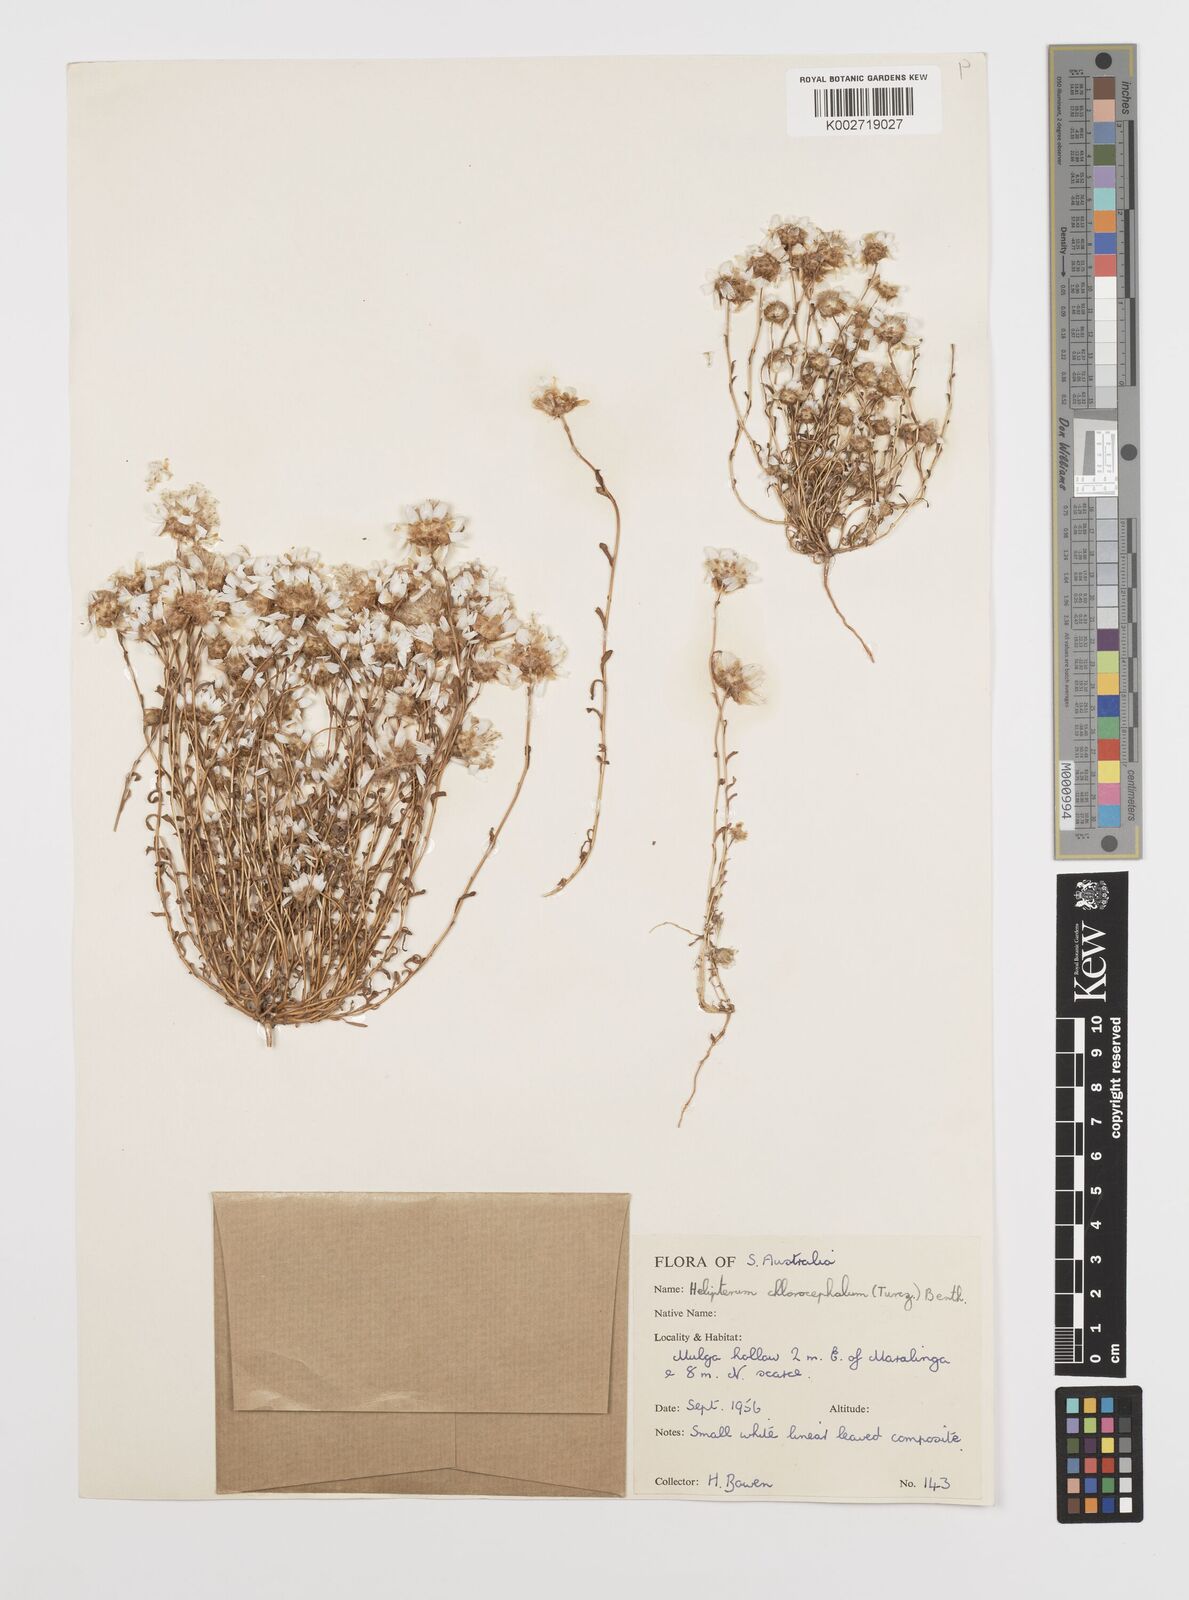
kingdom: Plantae
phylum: Tracheophyta
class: Magnoliopsida
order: Asterales
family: Asteraceae
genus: Rhodanthe
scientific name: Rhodanthe chlorocephala
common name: Rosy sunray
